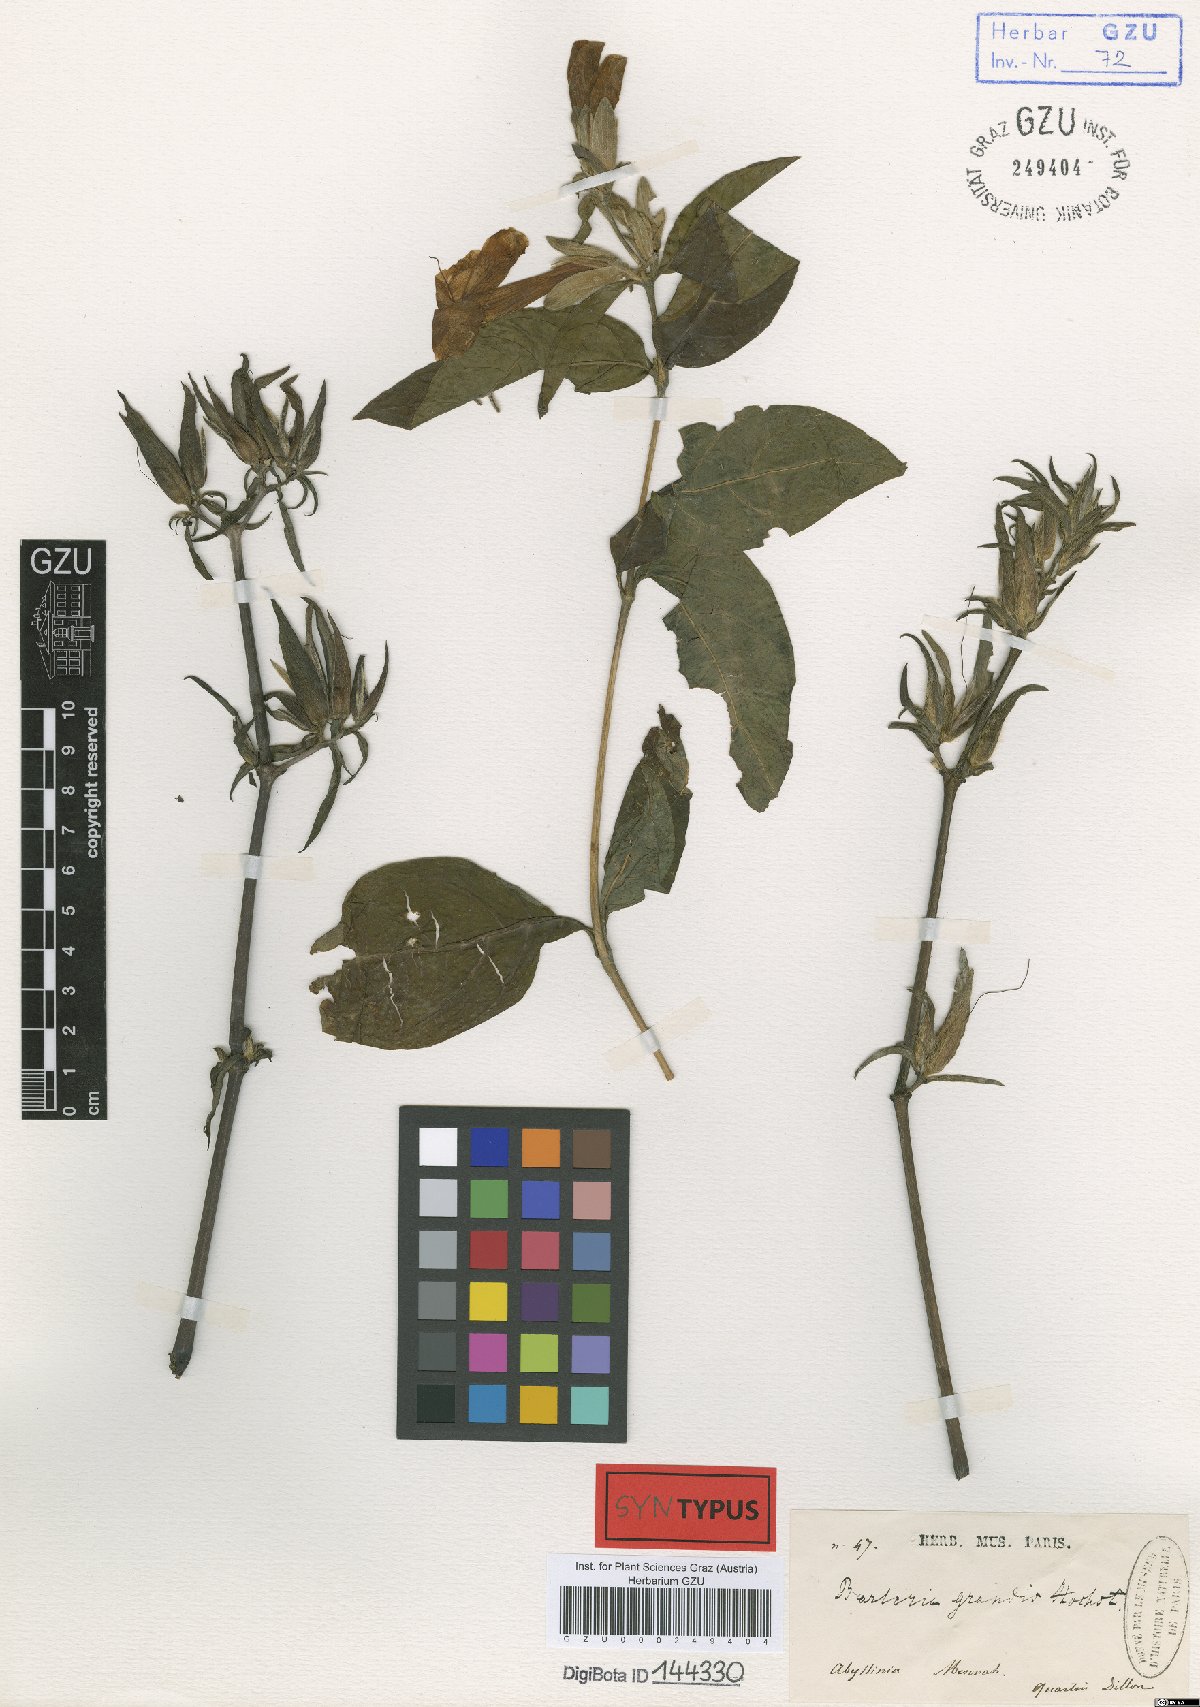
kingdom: Plantae
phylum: Tracheophyta
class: Magnoliopsida
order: Lamiales
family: Acanthaceae
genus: Barleria
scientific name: Barleria grandis
